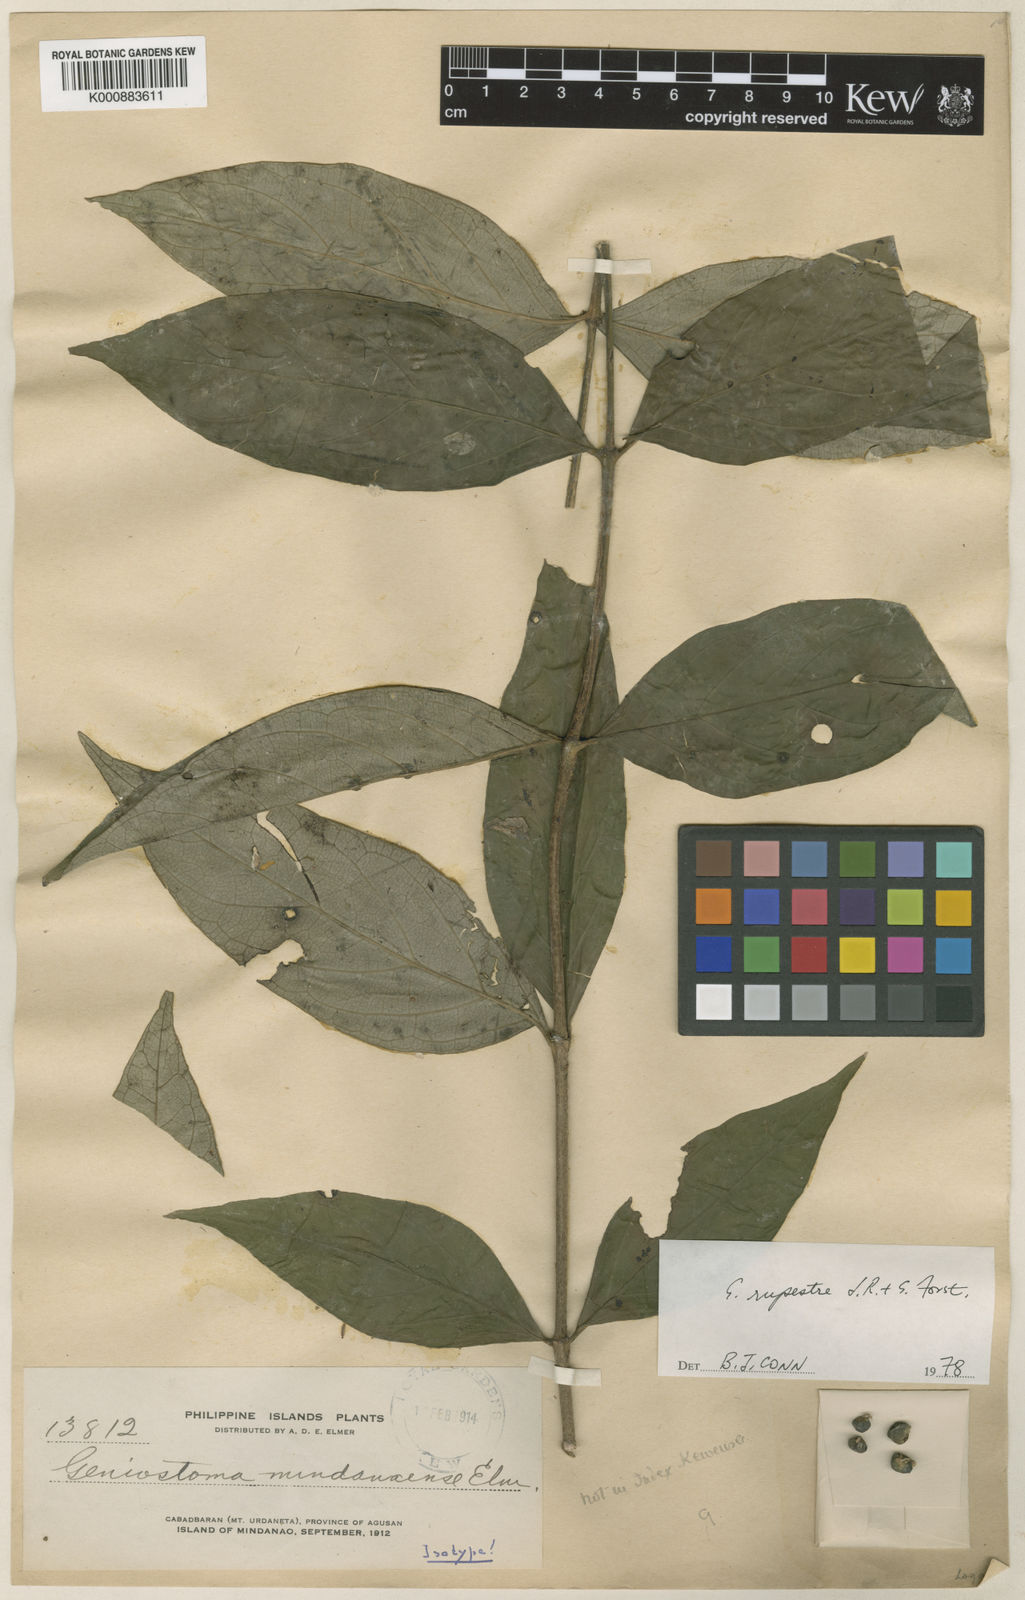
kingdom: Plantae
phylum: Tracheophyta
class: Magnoliopsida
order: Gentianales
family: Loganiaceae
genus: Geniostoma
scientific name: Geniostoma rupestre
